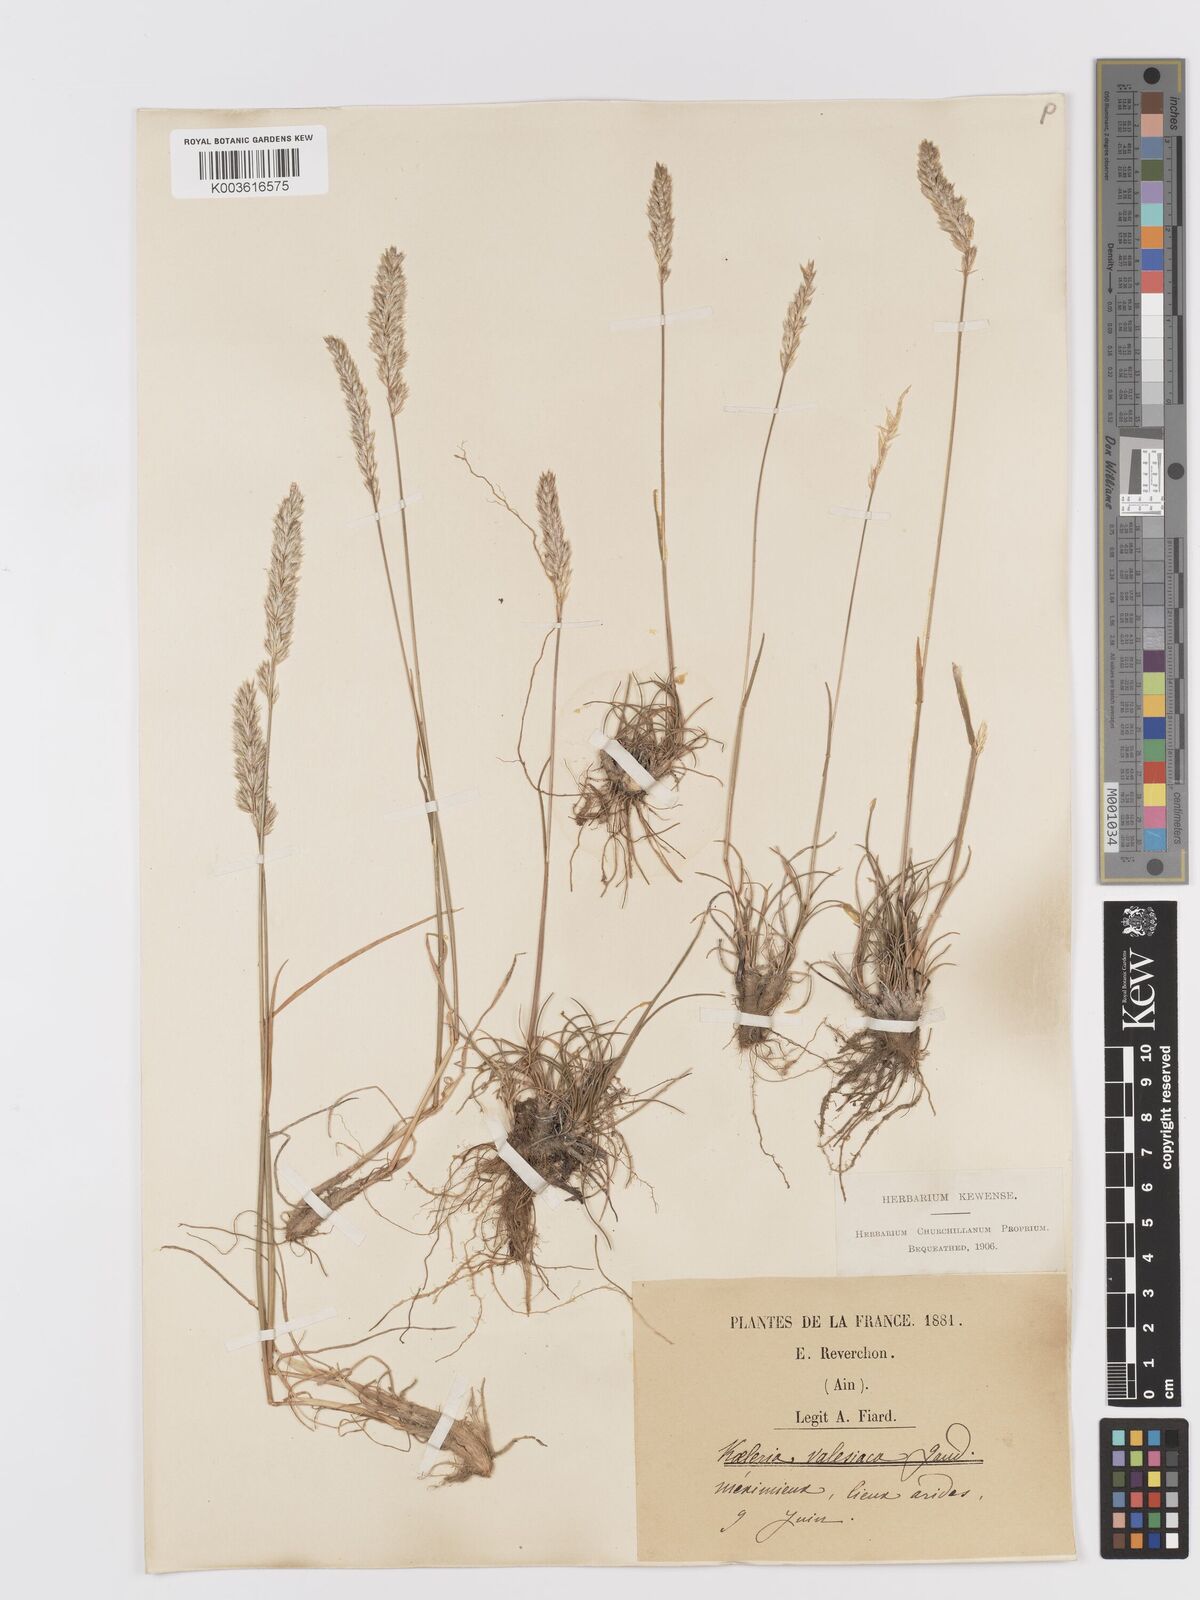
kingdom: Plantae
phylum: Tracheophyta
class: Liliopsida
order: Poales
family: Poaceae
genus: Koeleria
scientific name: Koeleria vallesiana
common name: Somerset hair-grass
